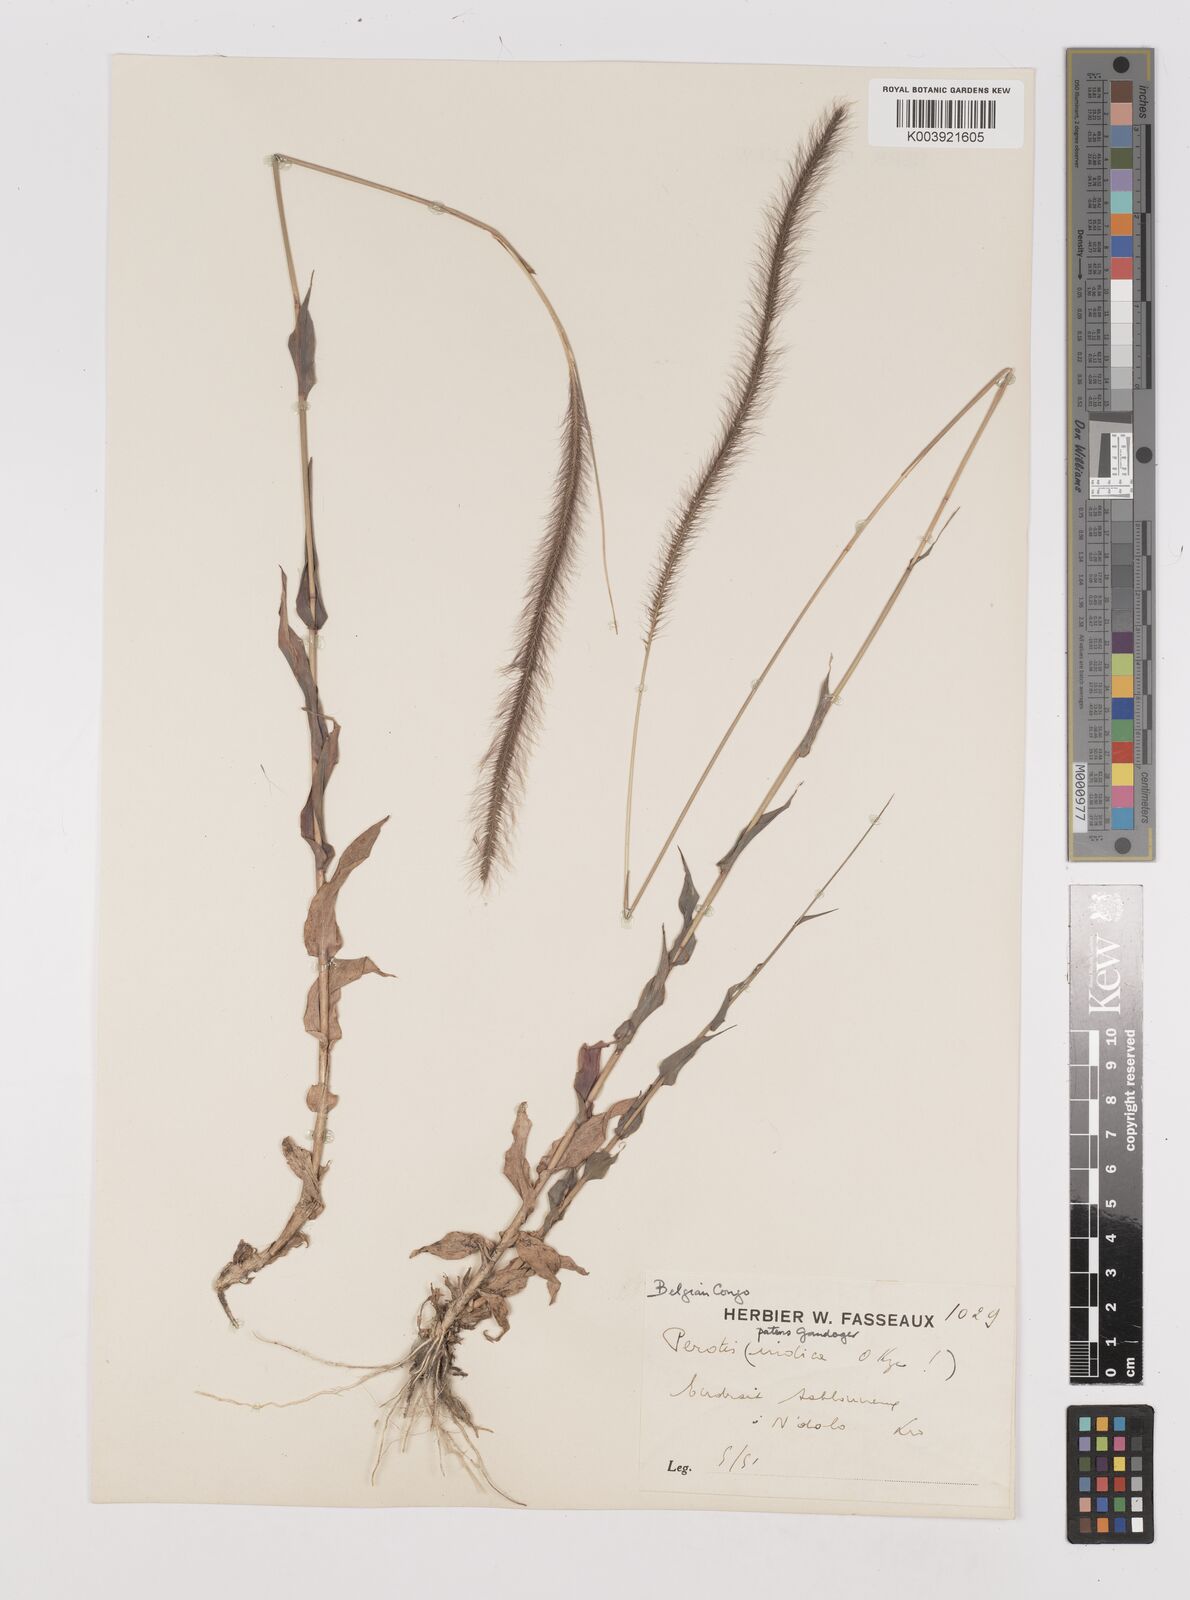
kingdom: Plantae
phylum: Tracheophyta
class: Liliopsida
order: Poales
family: Poaceae
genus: Perotis
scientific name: Perotis patens
